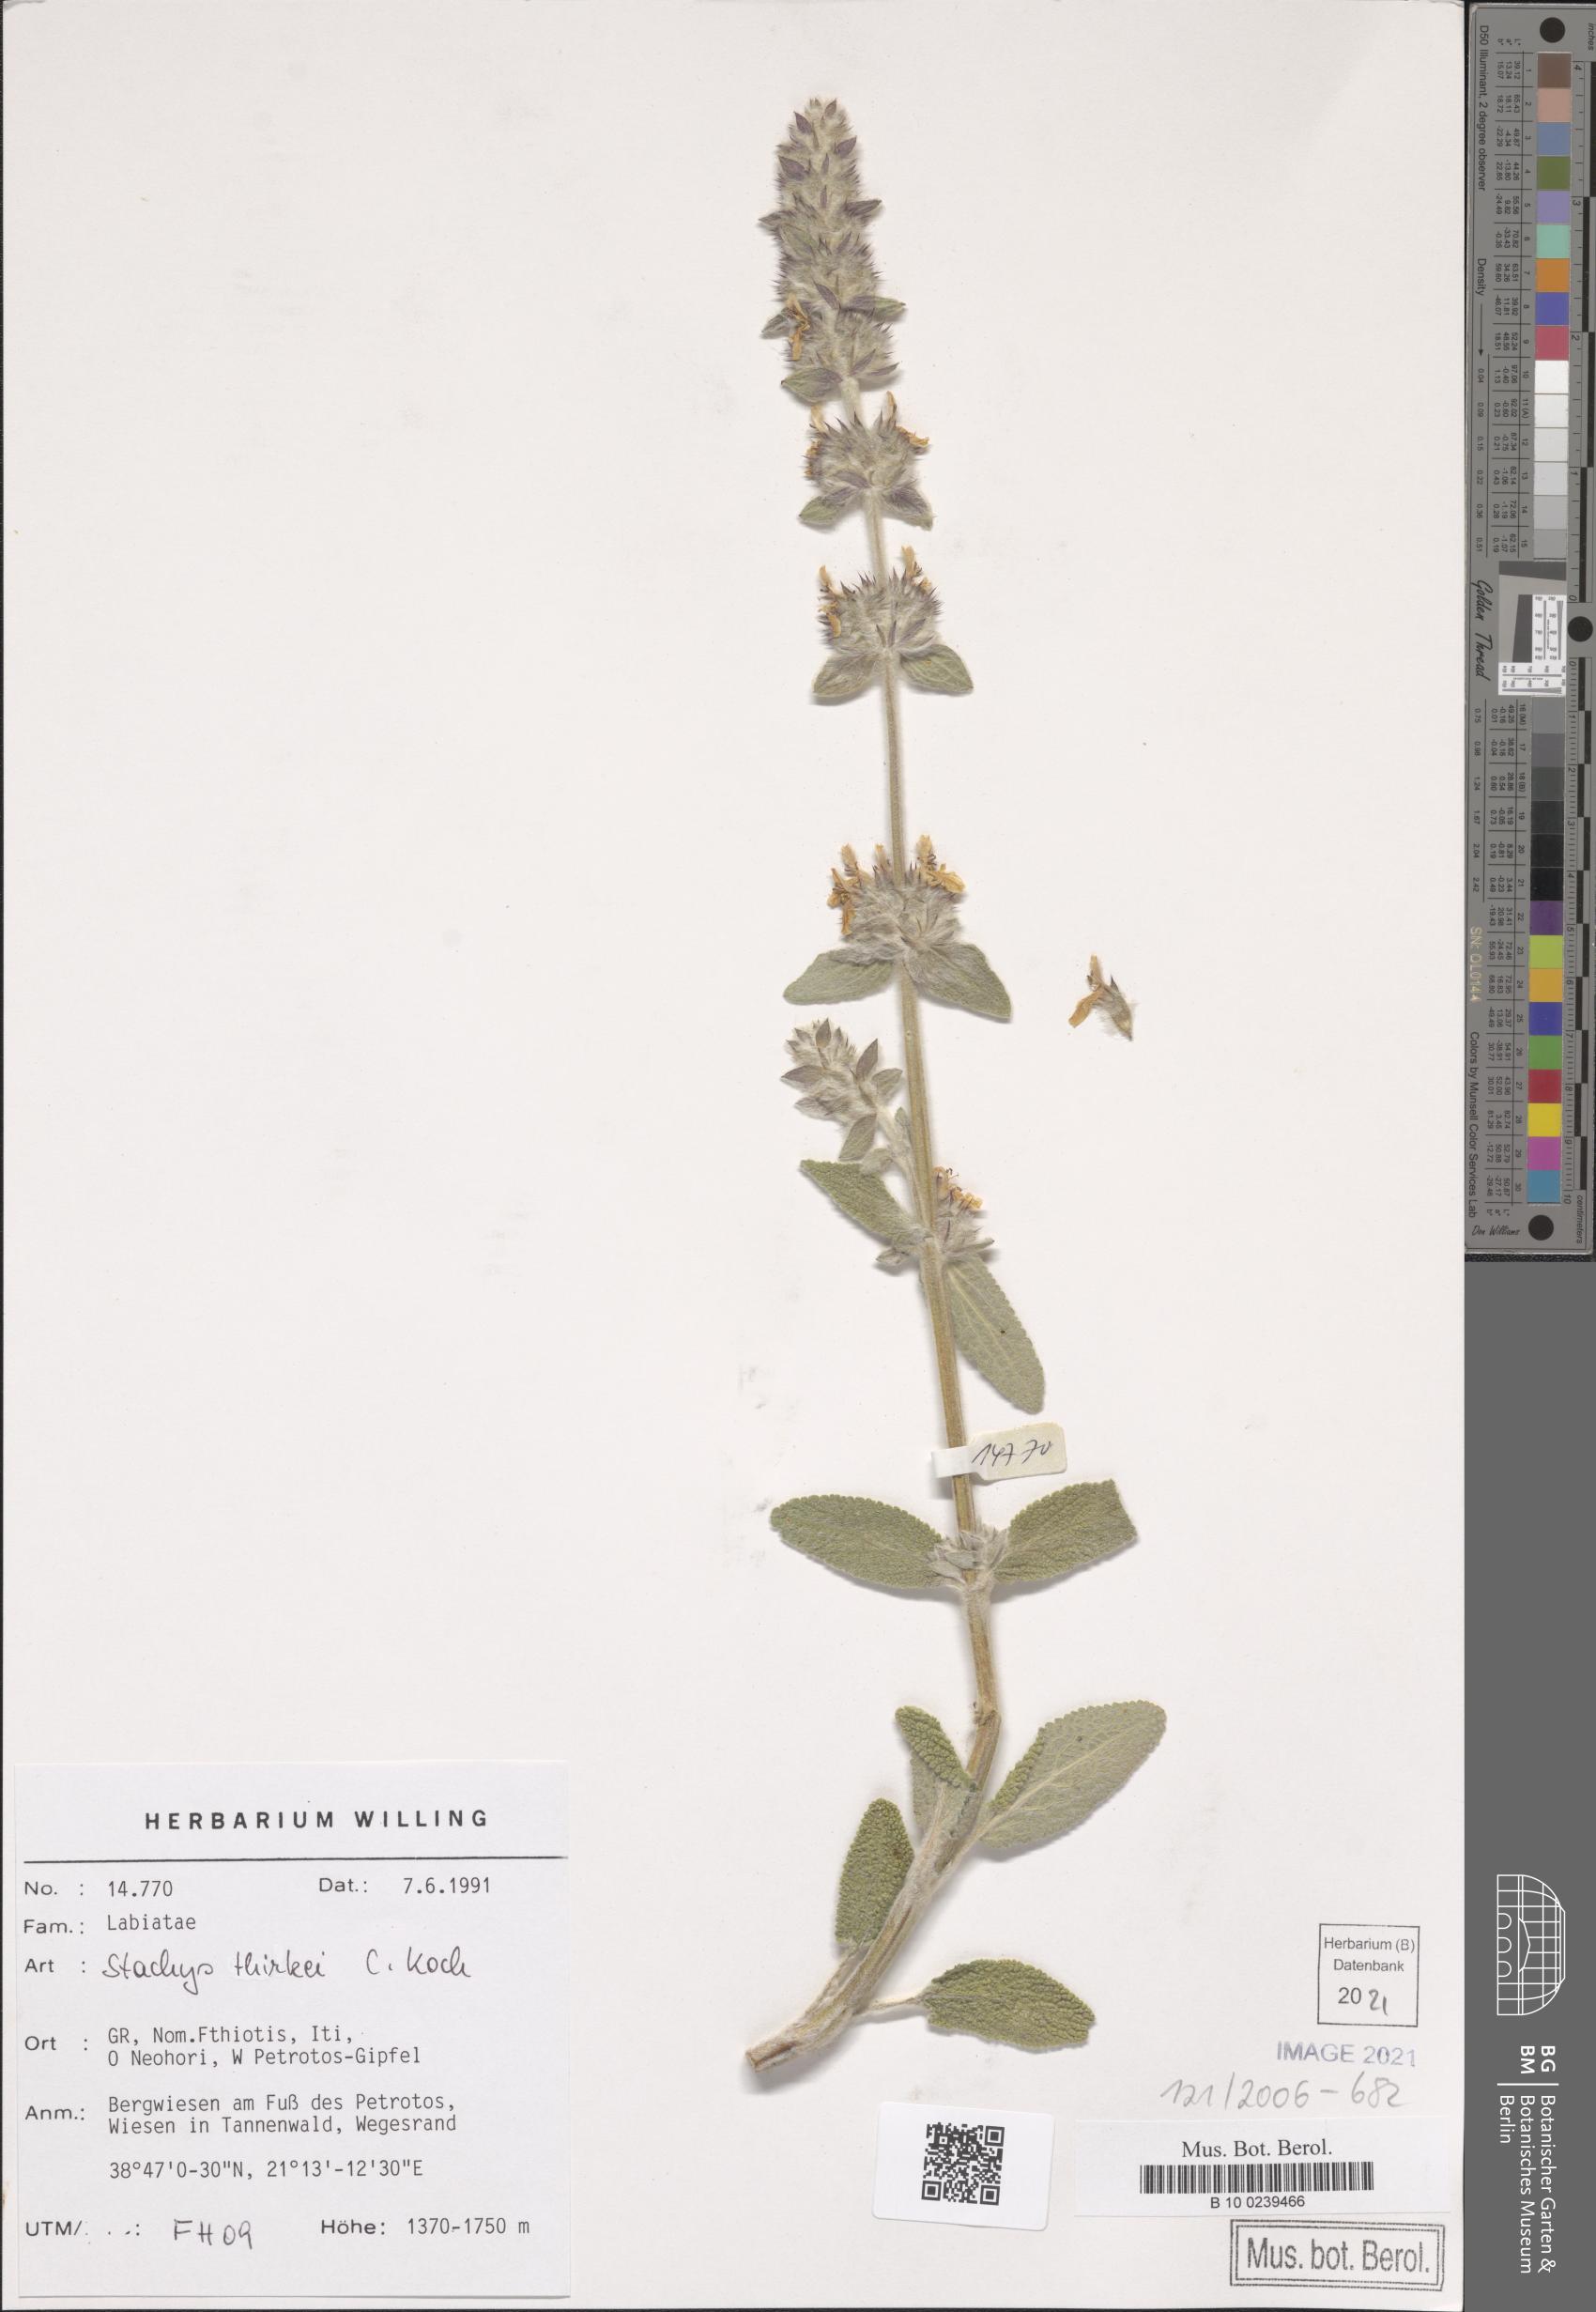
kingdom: Plantae
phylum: Tracheophyta
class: Magnoliopsida
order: Lamiales
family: Lamiaceae
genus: Stachys
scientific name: Stachys thirkei
